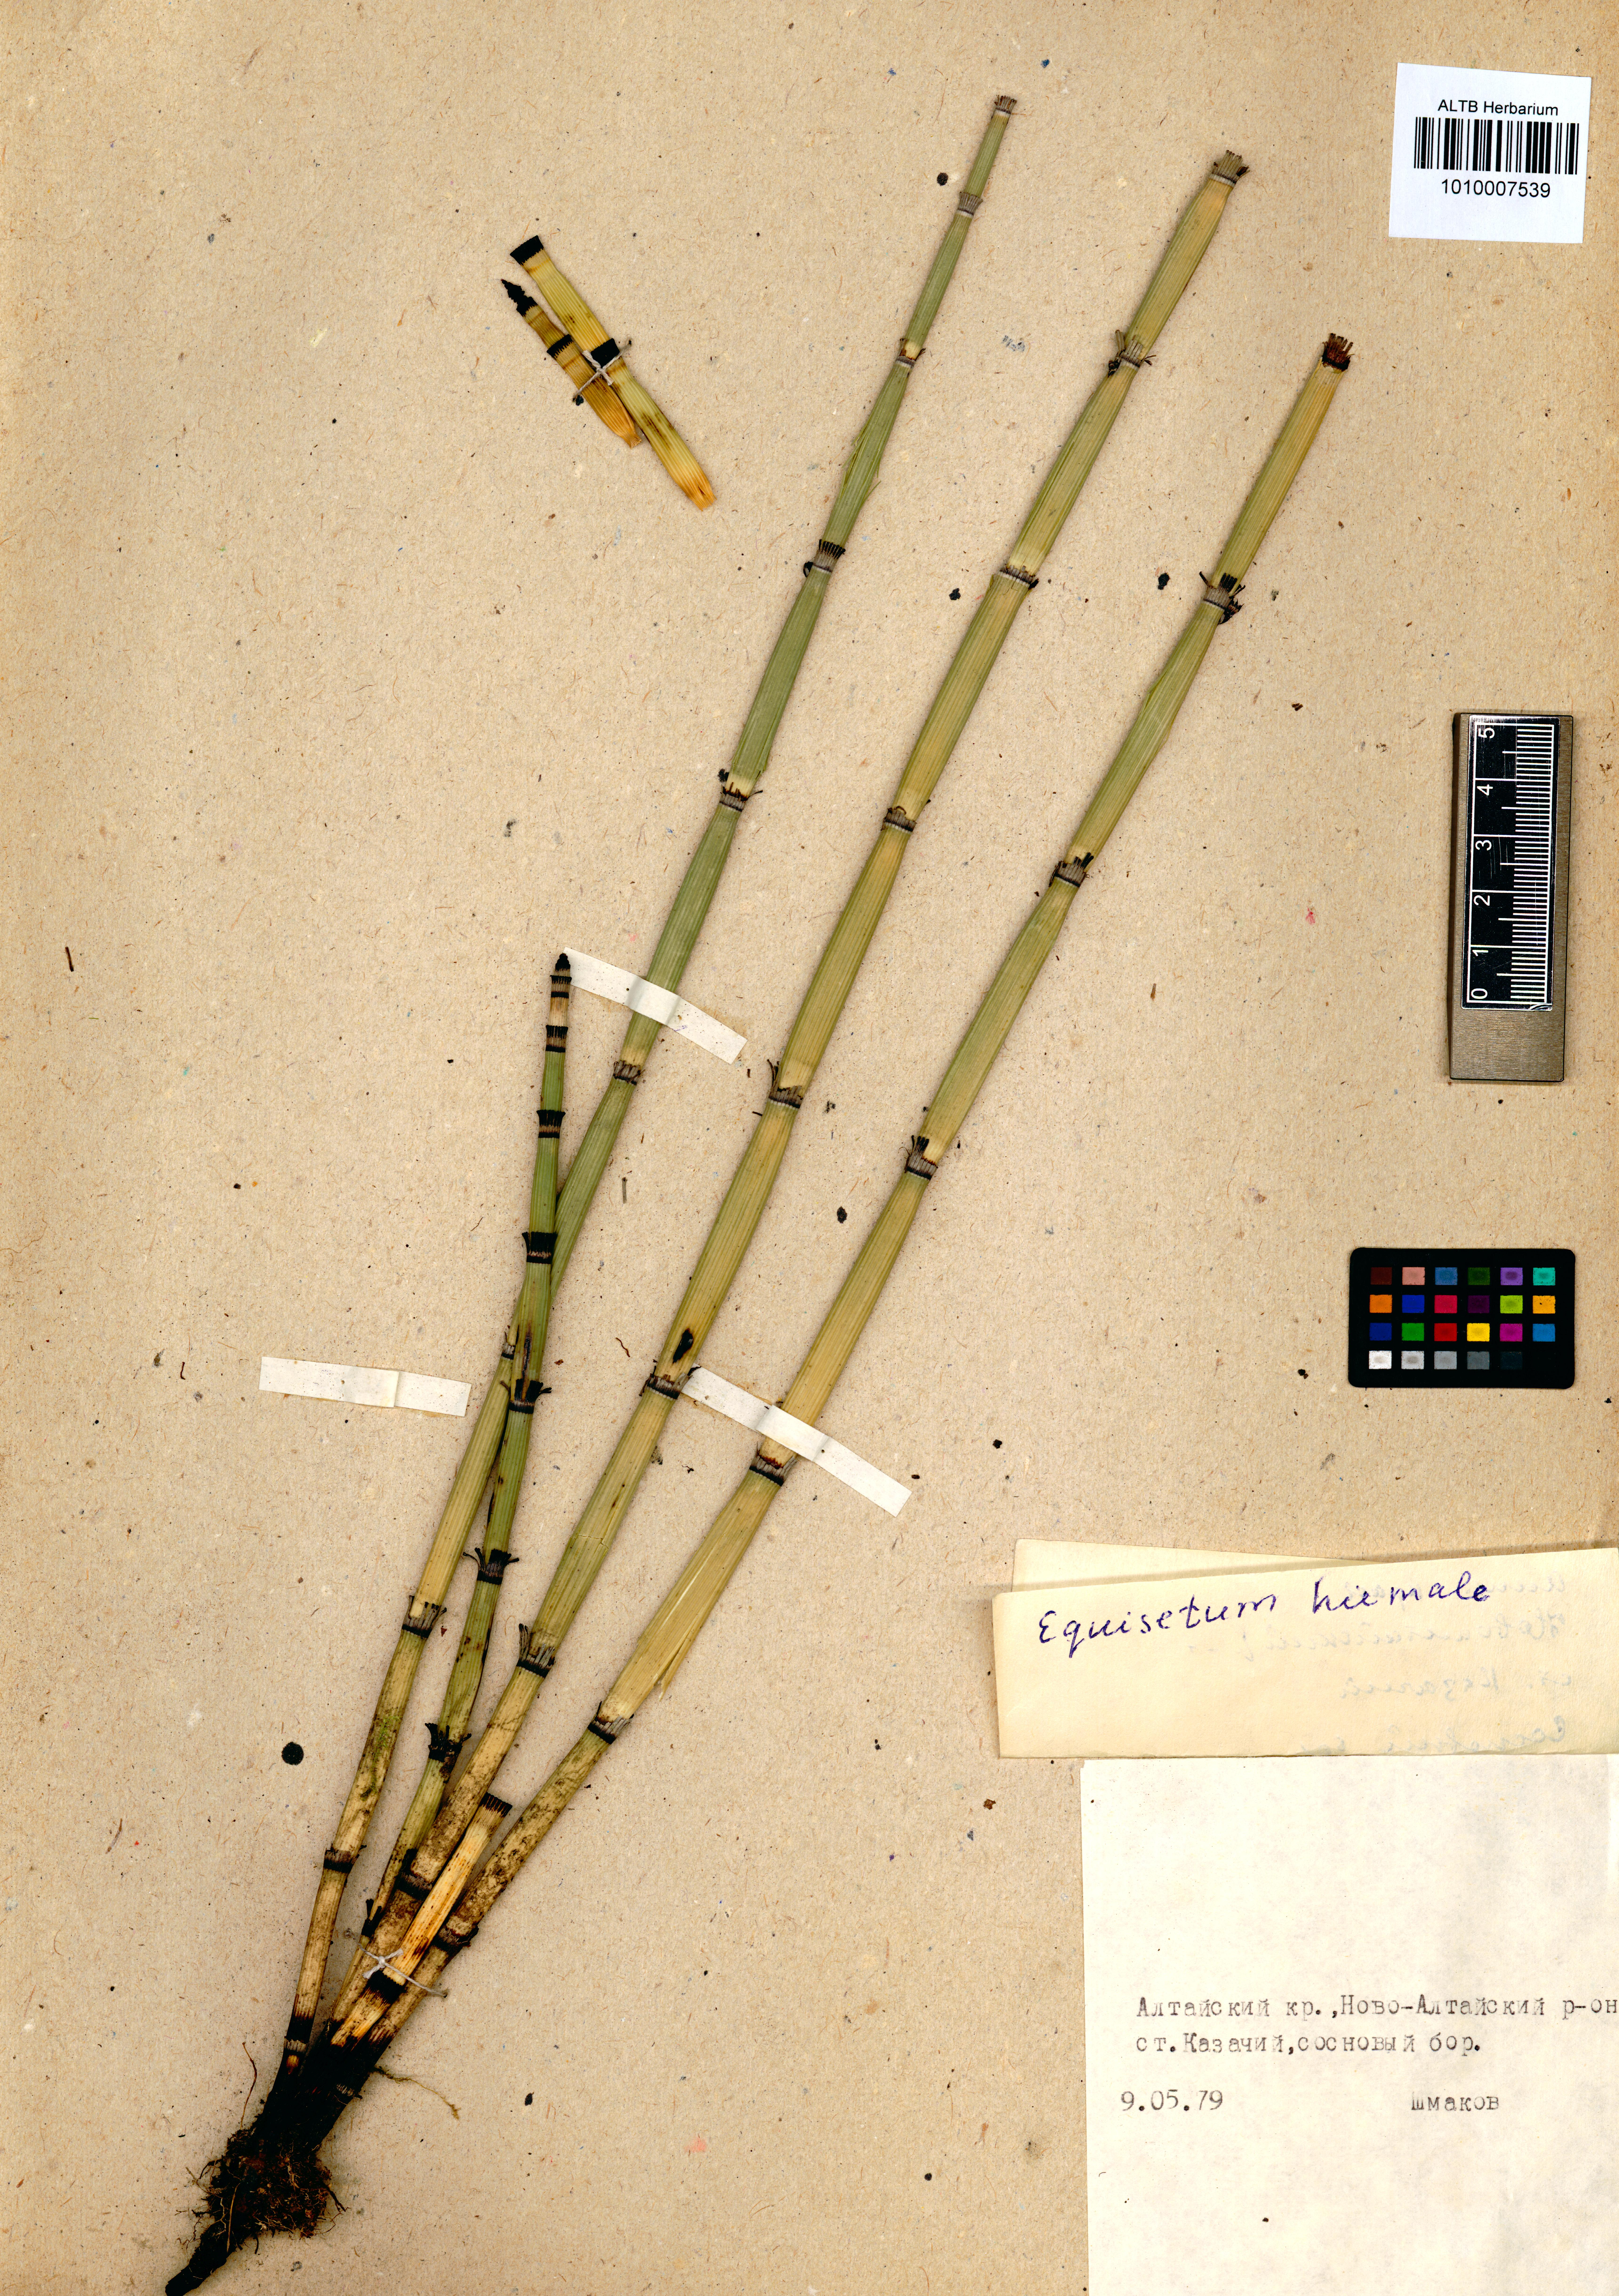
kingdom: Plantae
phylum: Tracheophyta
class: Polypodiopsida
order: Equisetales
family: Equisetaceae
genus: Equisetum
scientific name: Equisetum hyemale
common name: Rough horsetail
